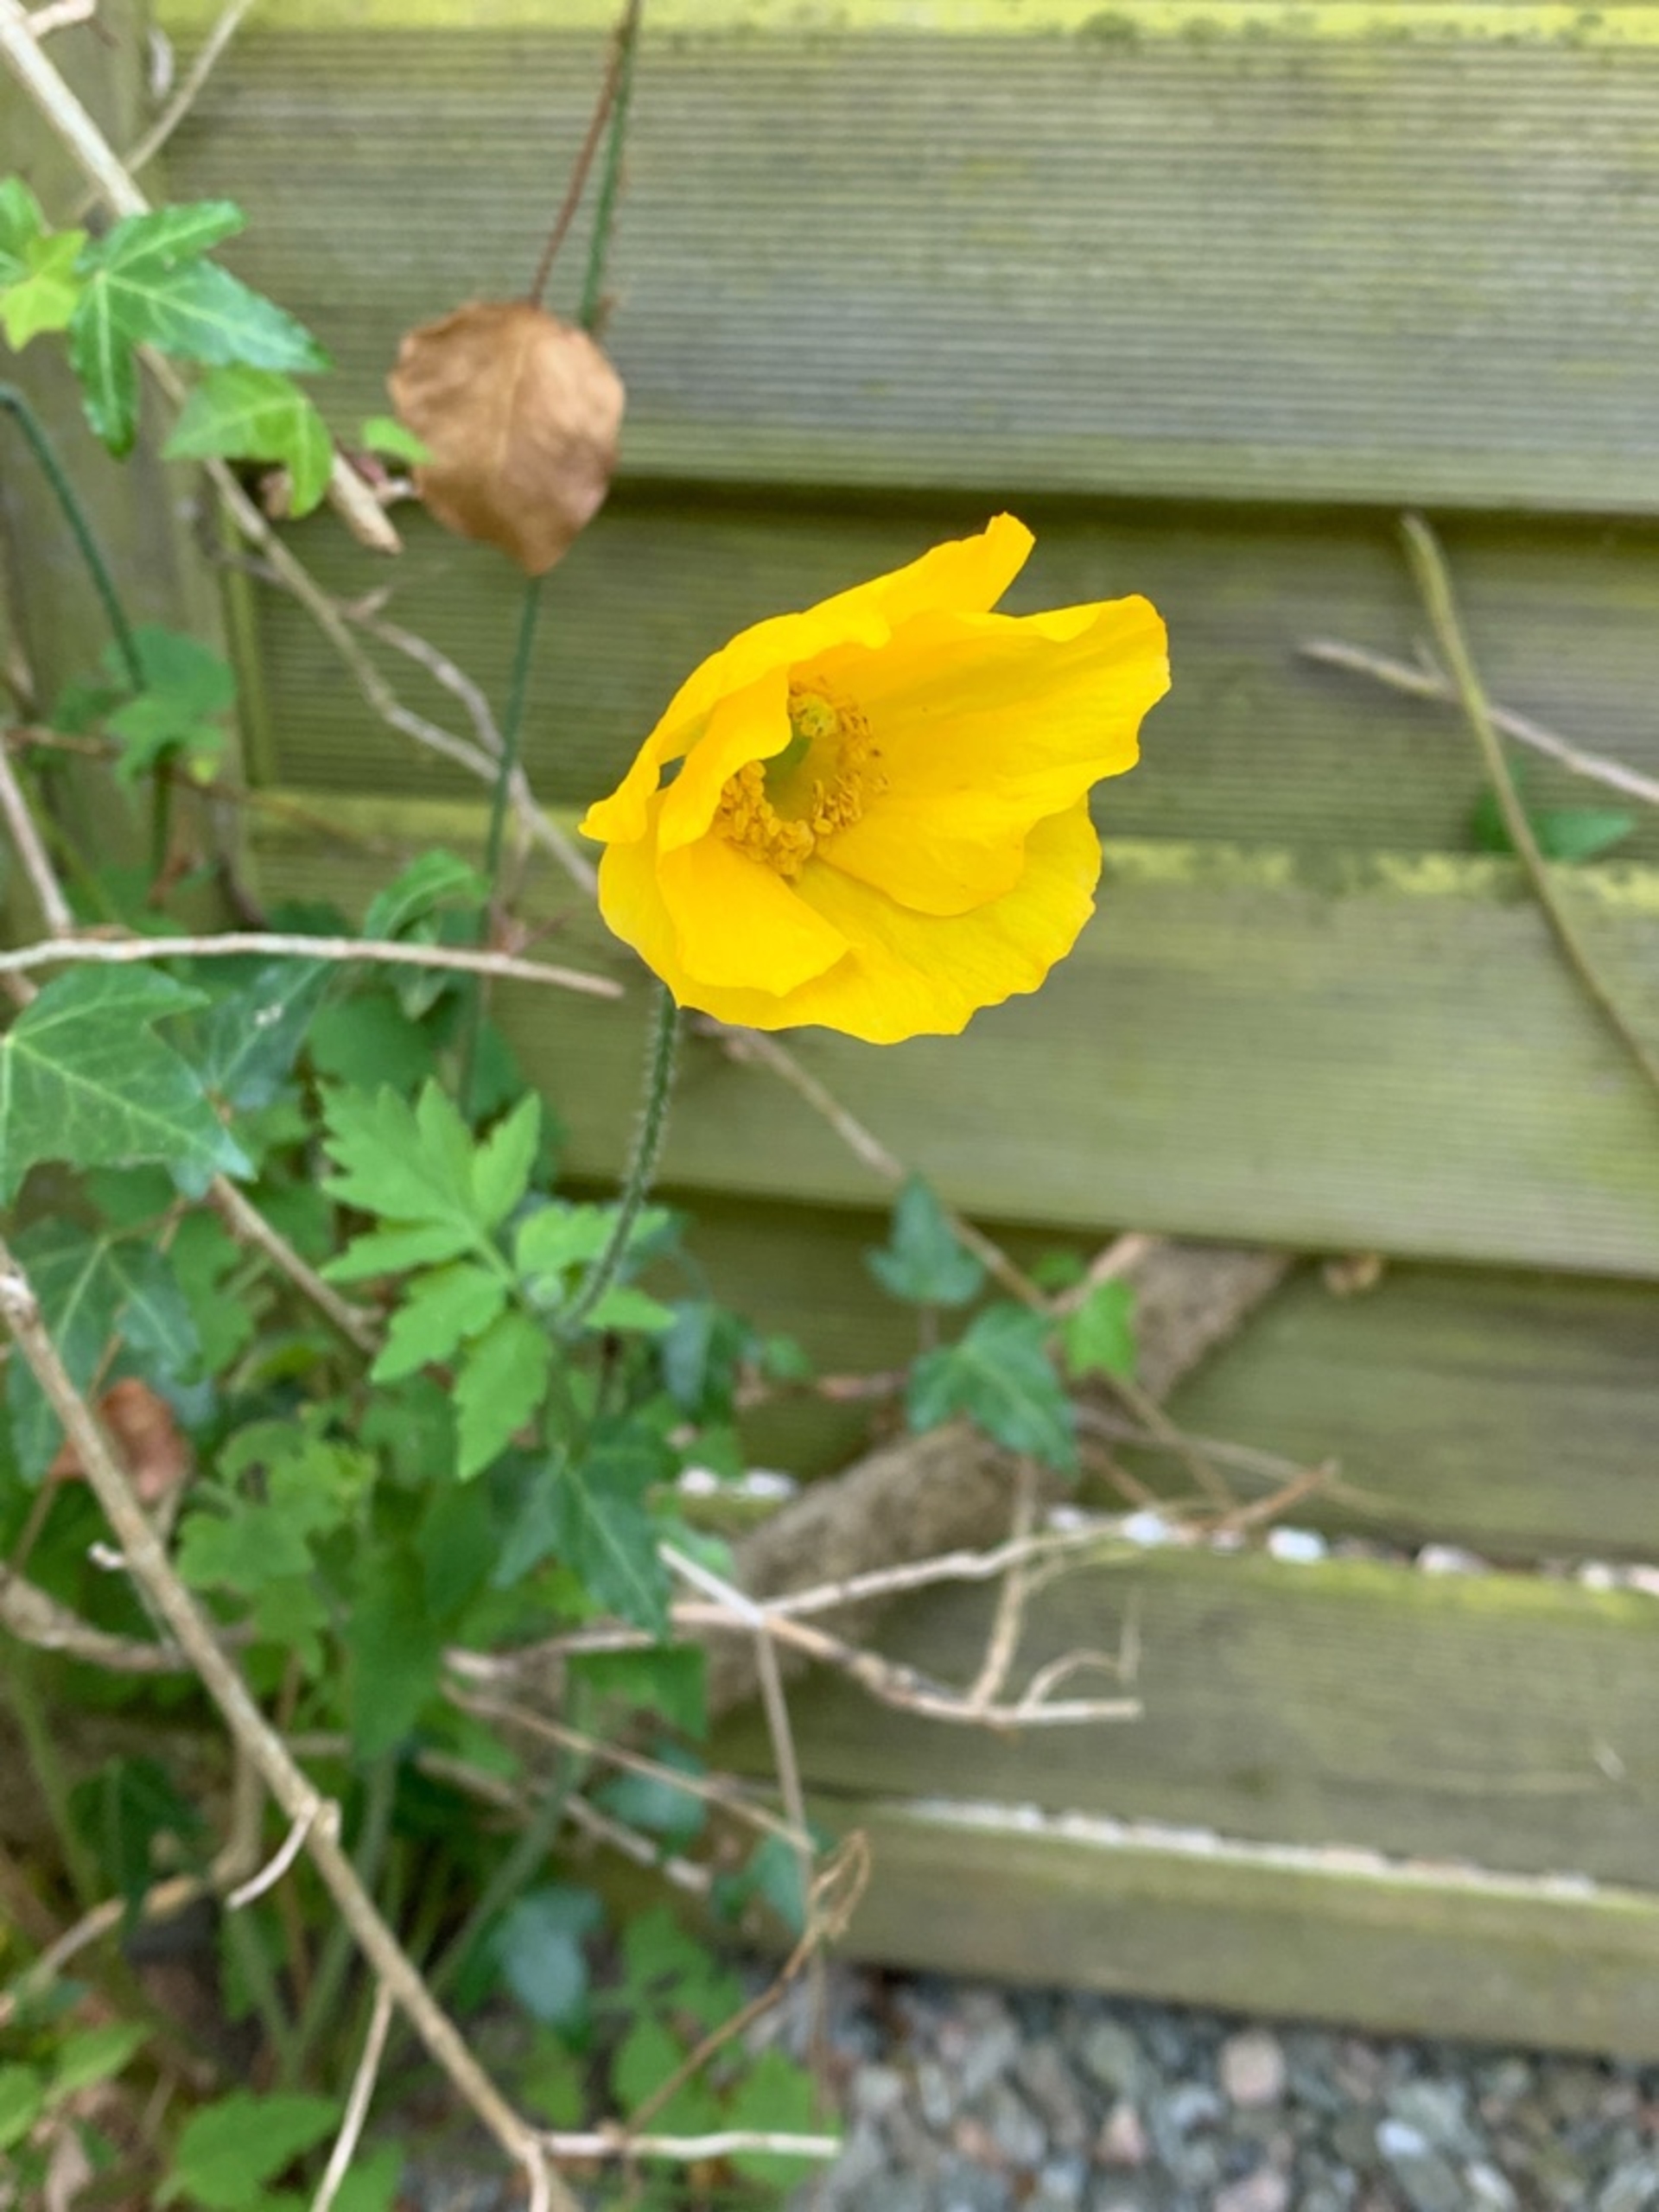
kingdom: Plantae
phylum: Tracheophyta
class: Magnoliopsida
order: Ranunculales
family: Papaveraceae
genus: Papaver
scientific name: Papaver cambricum
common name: Skov-valmue
